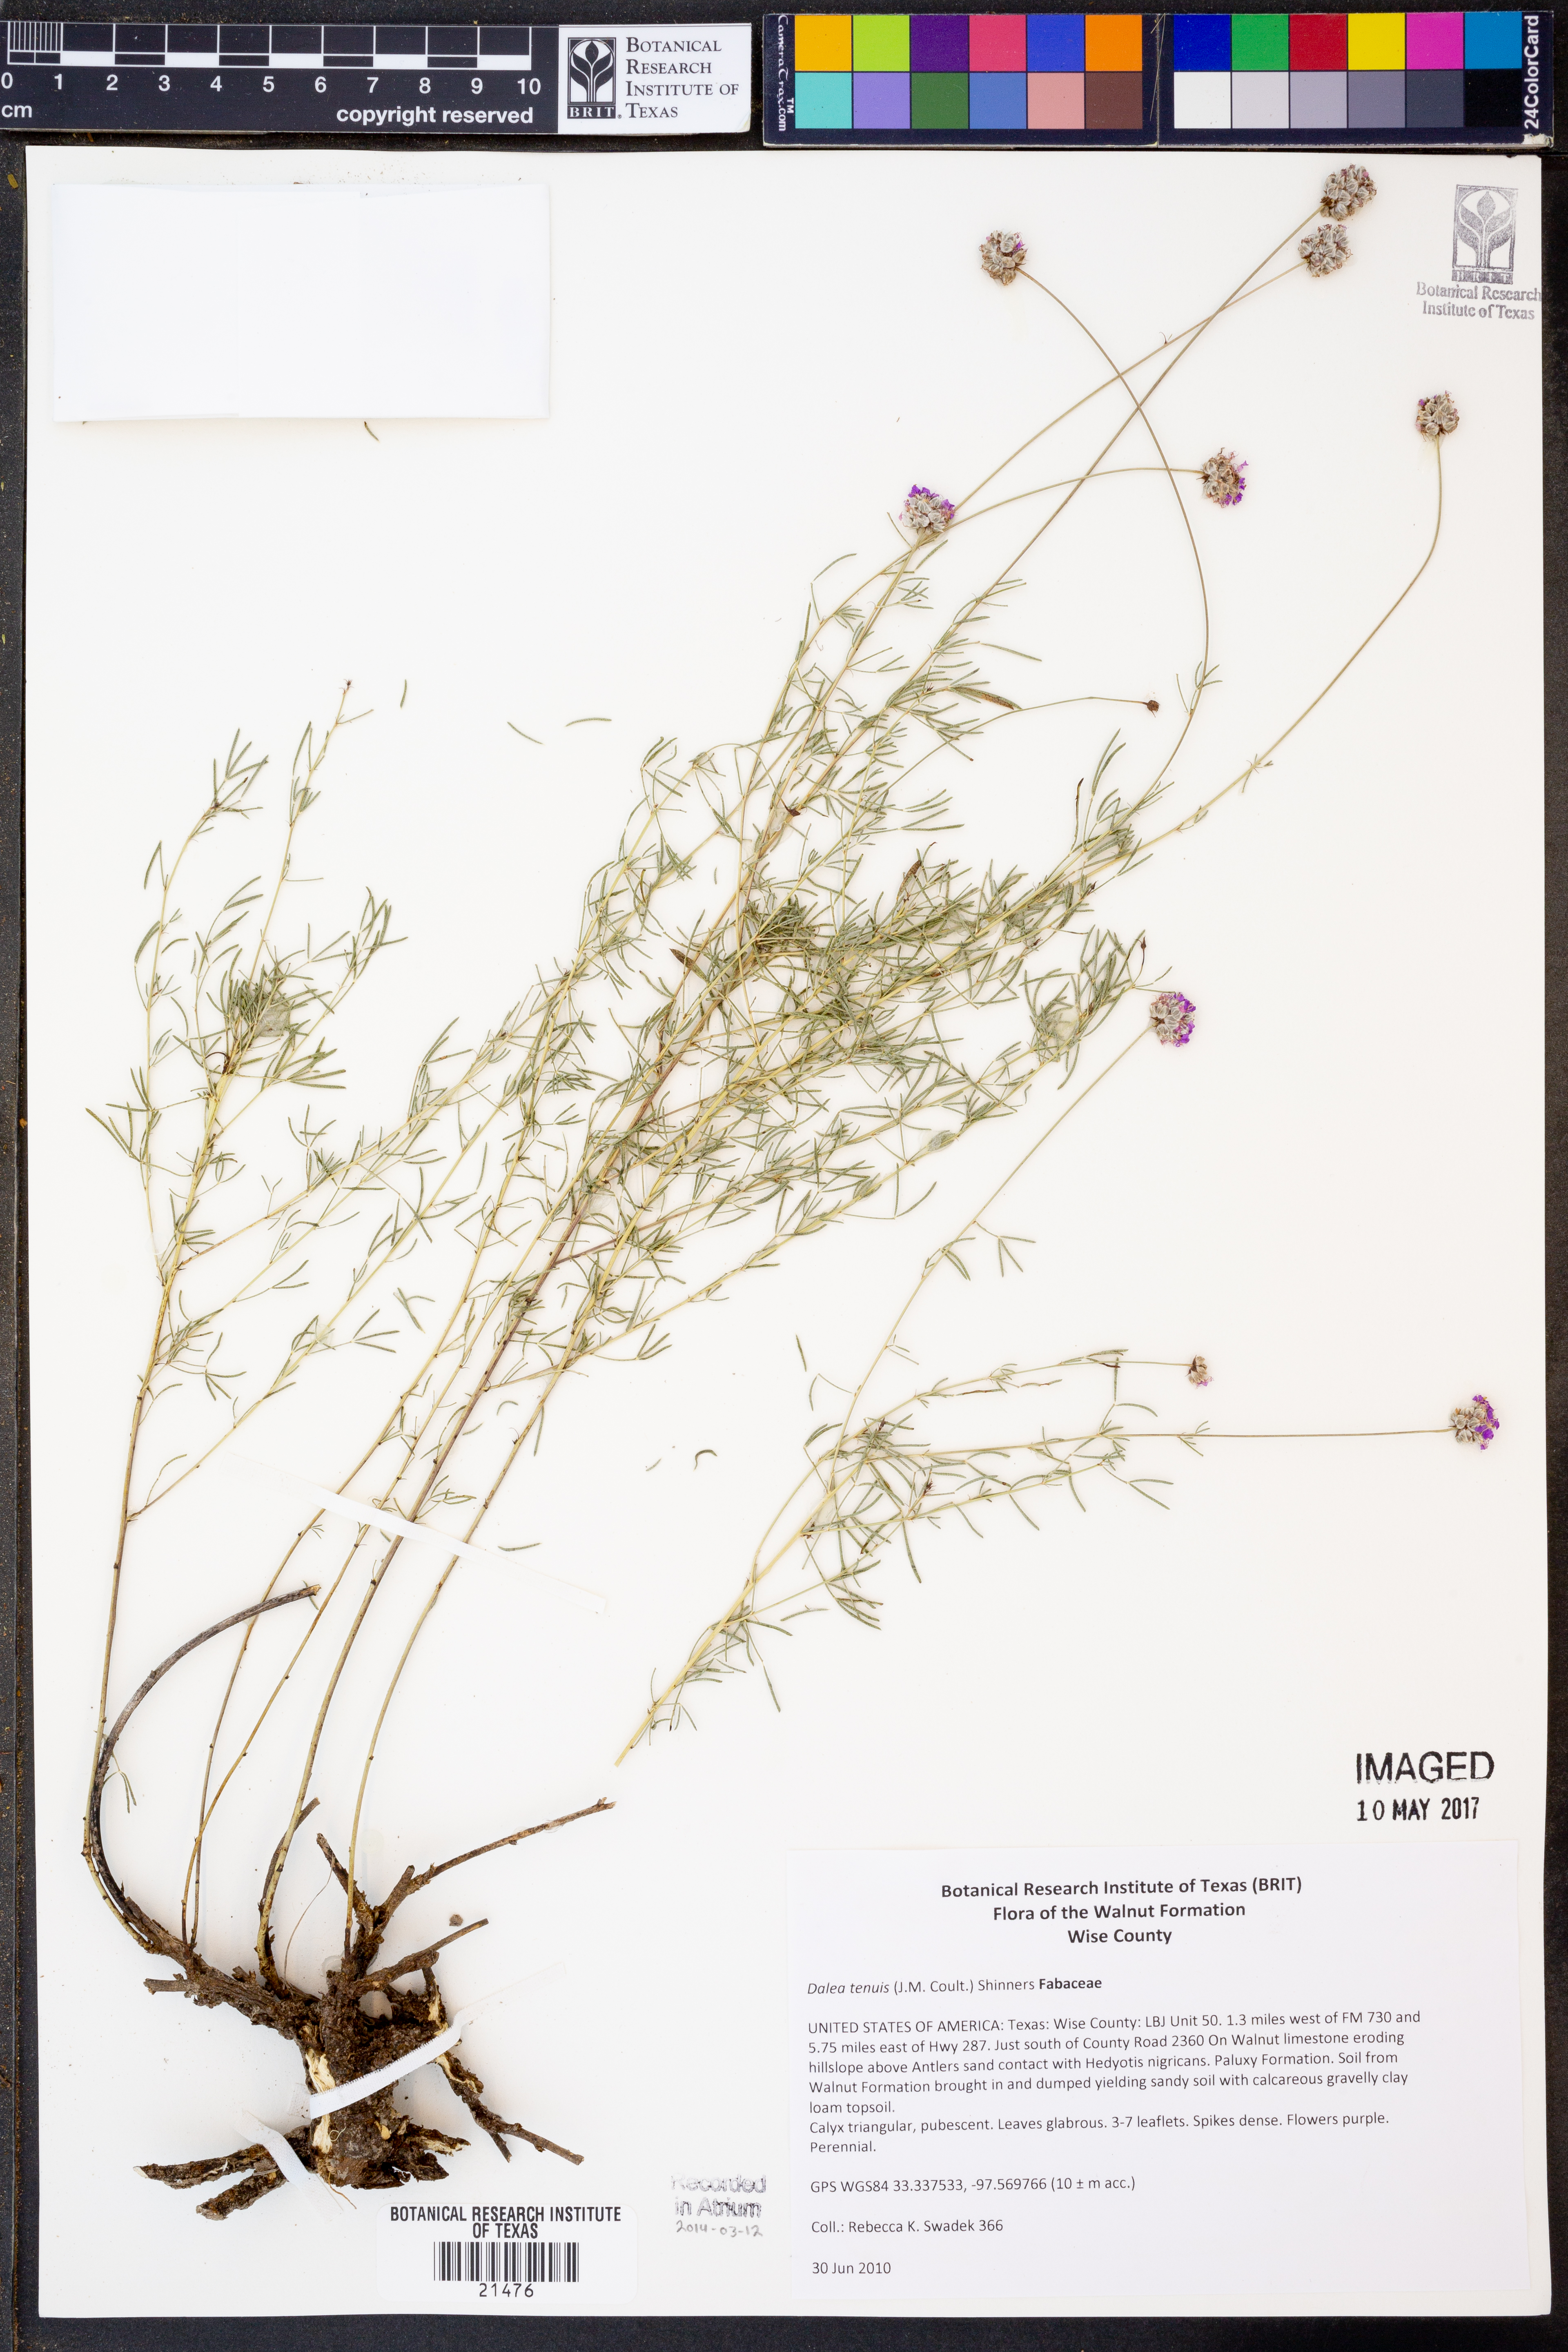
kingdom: Plantae
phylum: Tracheophyta
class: Magnoliopsida
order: Fabales
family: Fabaceae
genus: Dalea
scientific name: Dalea tenuis
